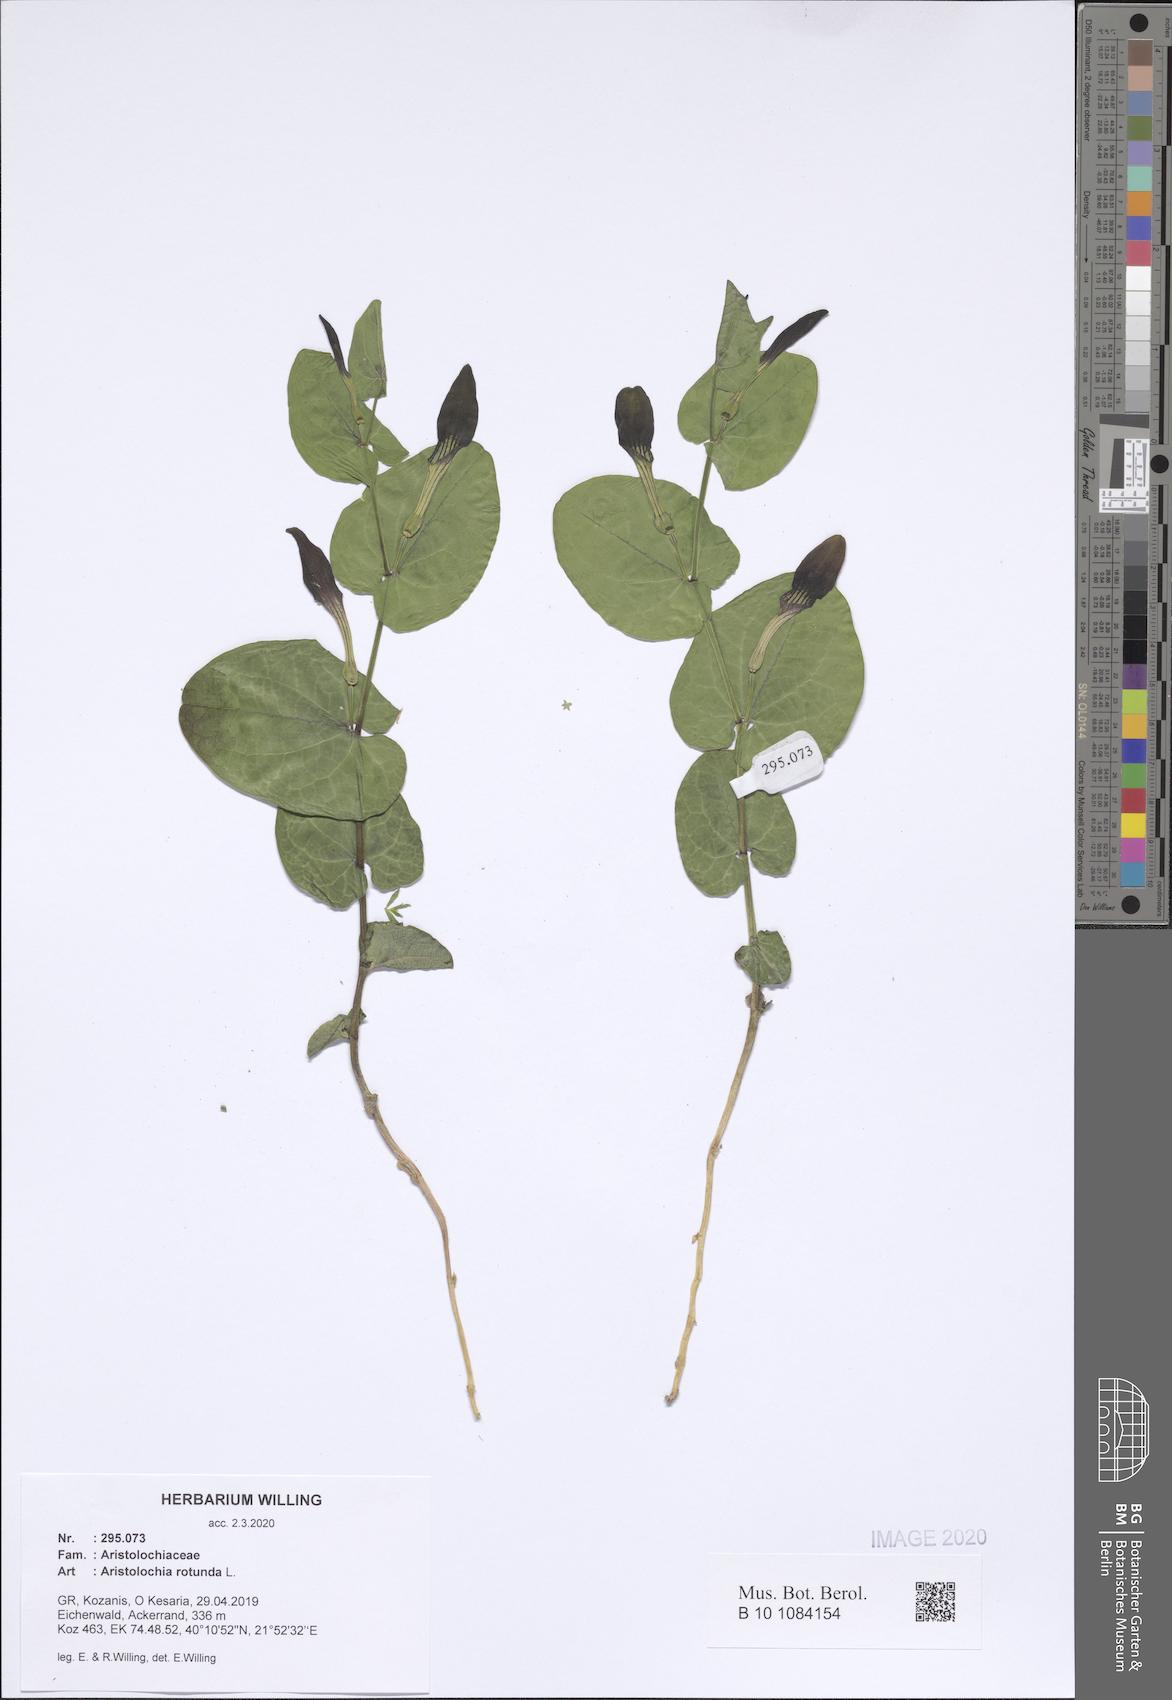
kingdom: Plantae
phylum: Tracheophyta
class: Magnoliopsida
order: Piperales
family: Aristolochiaceae
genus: Aristolochia
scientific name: Aristolochia rotunda
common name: Smearwort
